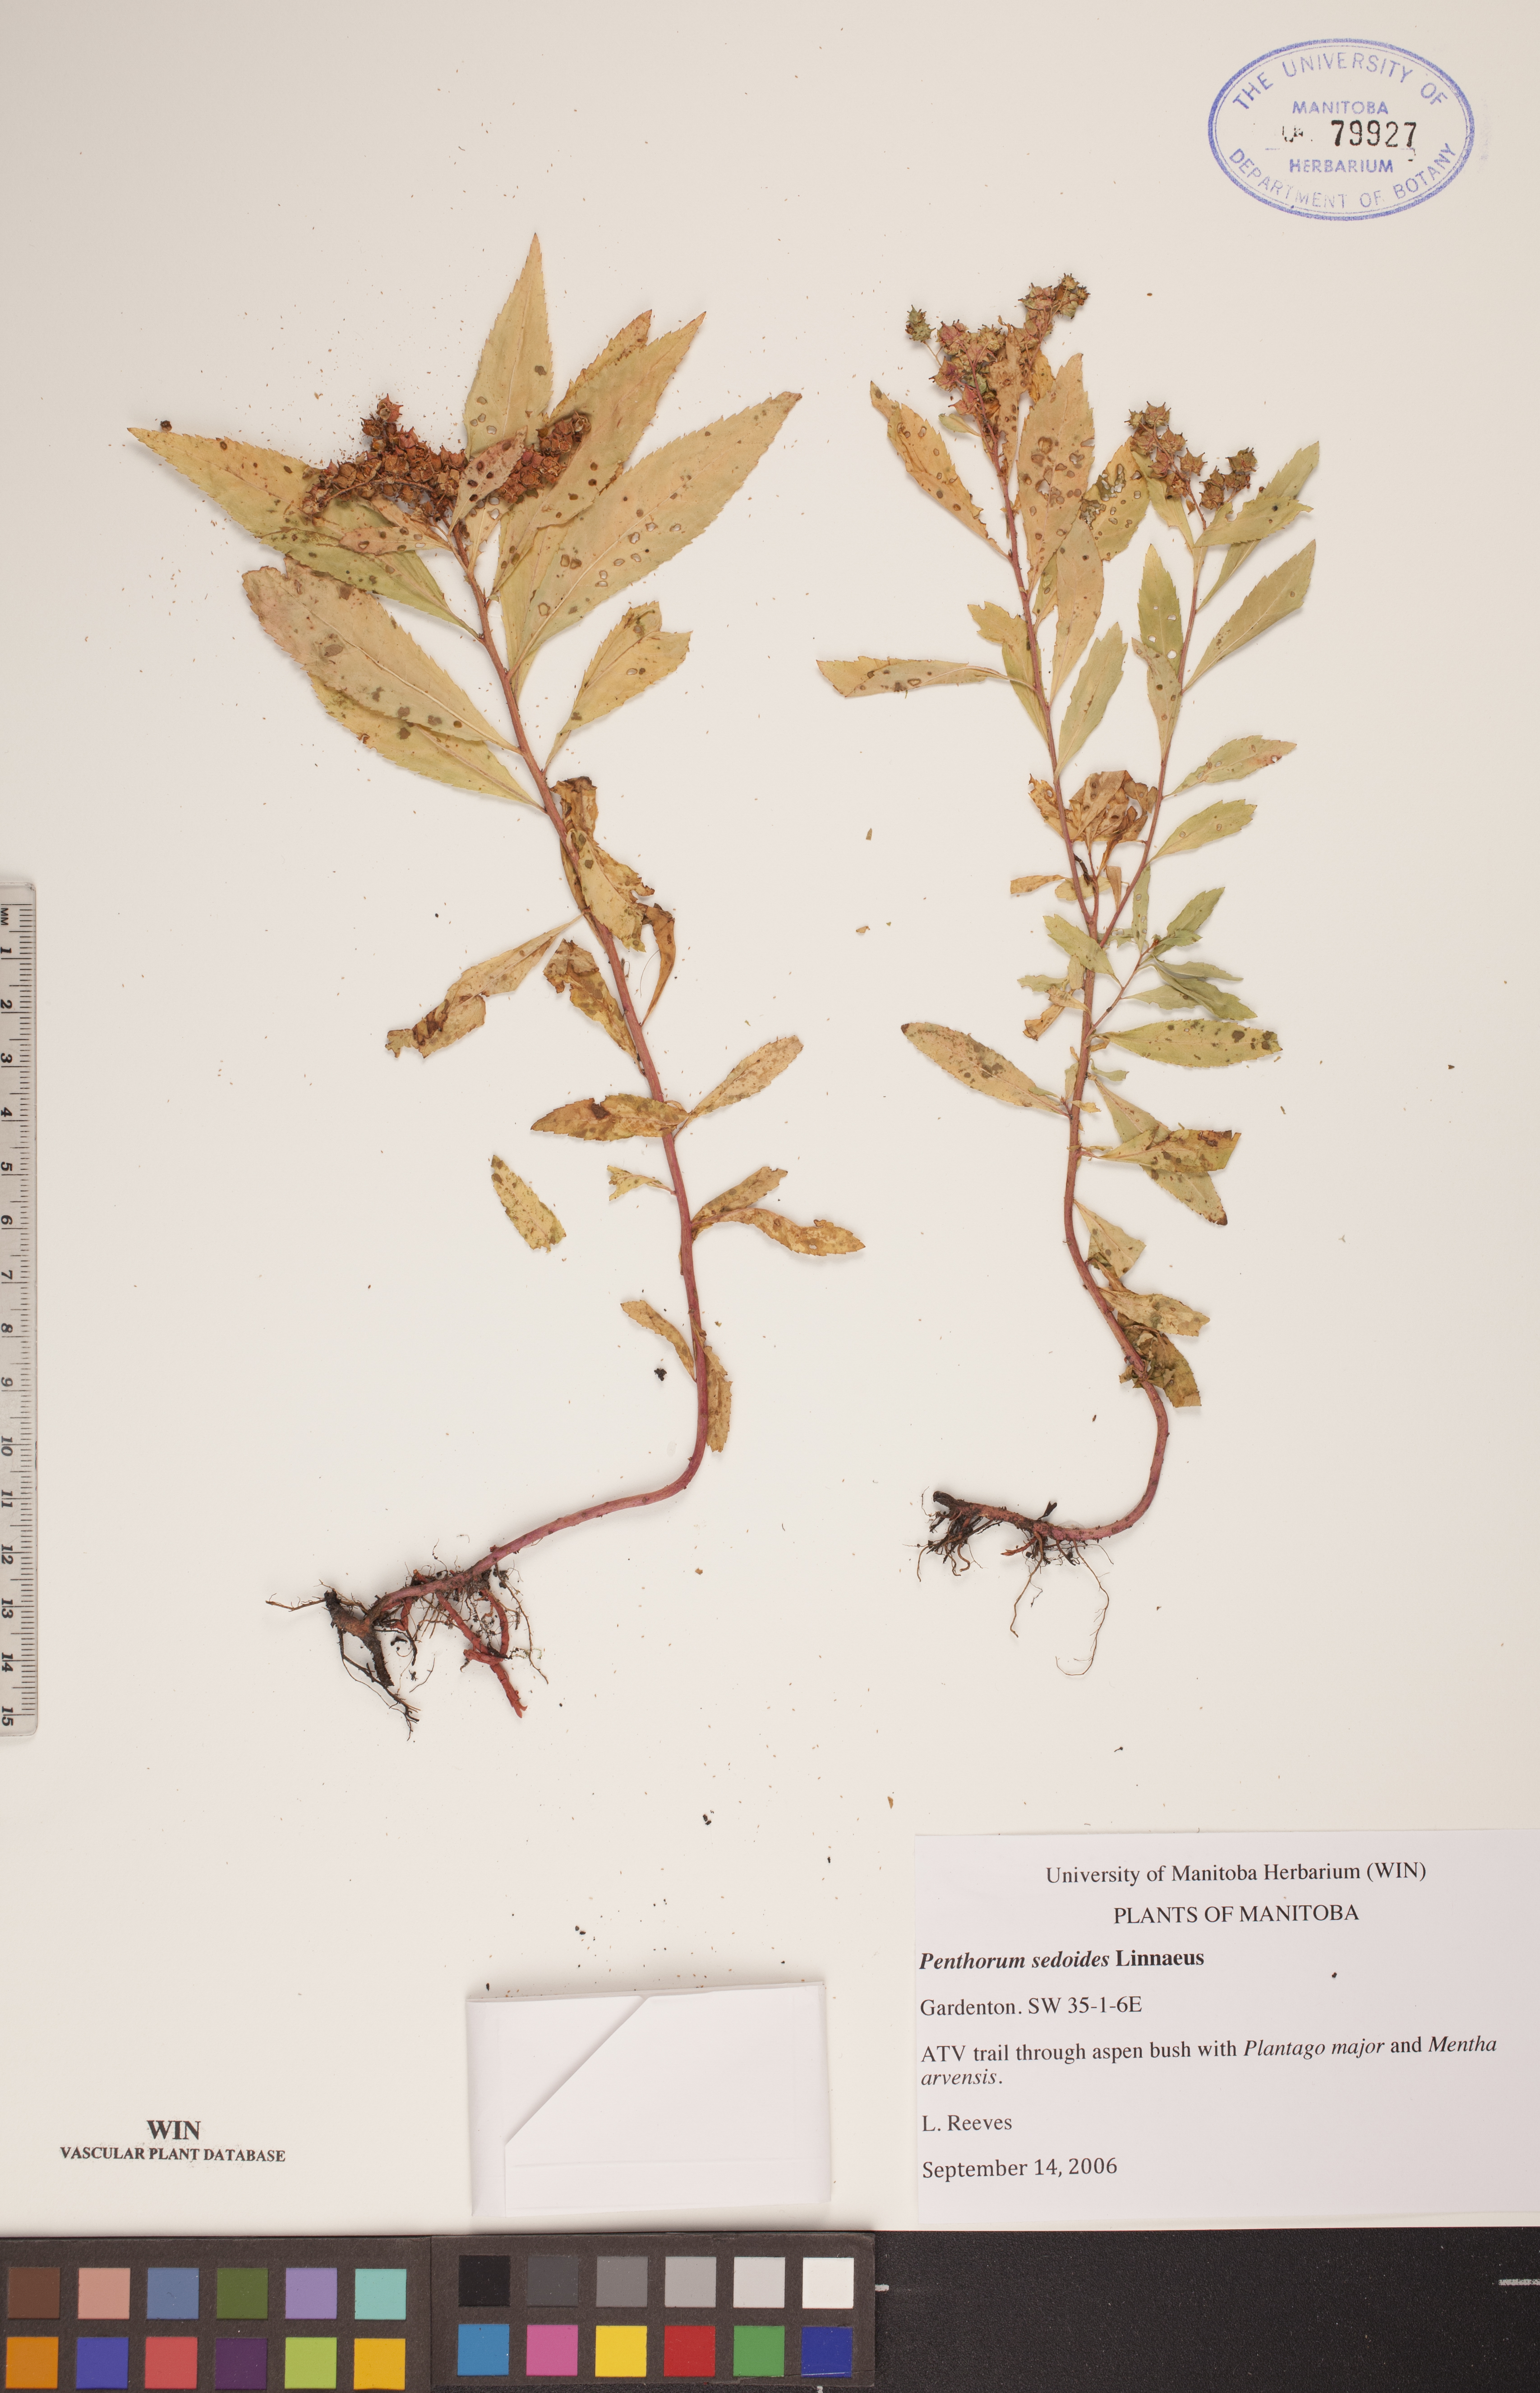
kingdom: Plantae
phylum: Tracheophyta
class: Magnoliopsida
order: Saxifragales
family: Penthoraceae
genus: Penthorum
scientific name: Penthorum sedoides
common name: Ditch stonecrop
